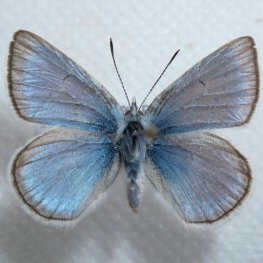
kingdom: Animalia
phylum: Arthropoda
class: Insecta
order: Lepidoptera
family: Lycaenidae
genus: Plebejus
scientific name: Plebejus saepiolus
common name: Greenish Blue
